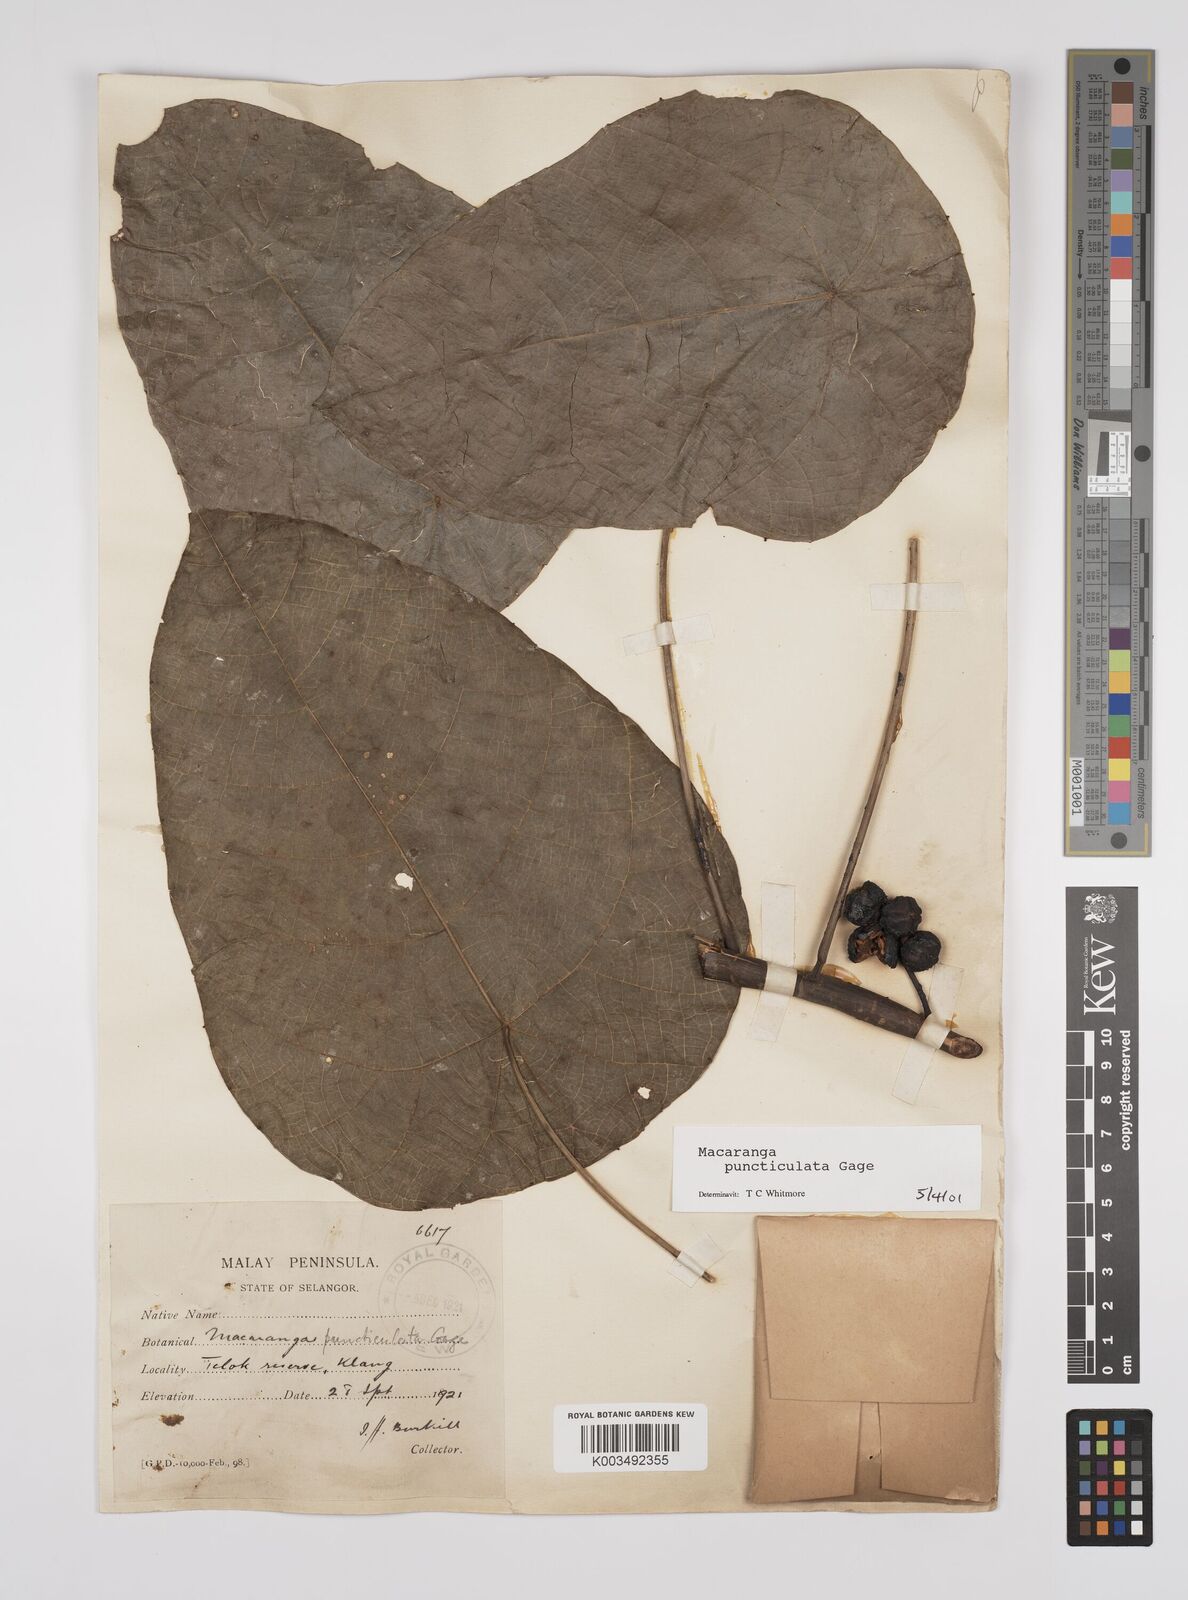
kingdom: Plantae
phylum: Tracheophyta
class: Magnoliopsida
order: Malpighiales
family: Euphorbiaceae
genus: Macaranga
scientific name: Macaranga puncticulata
